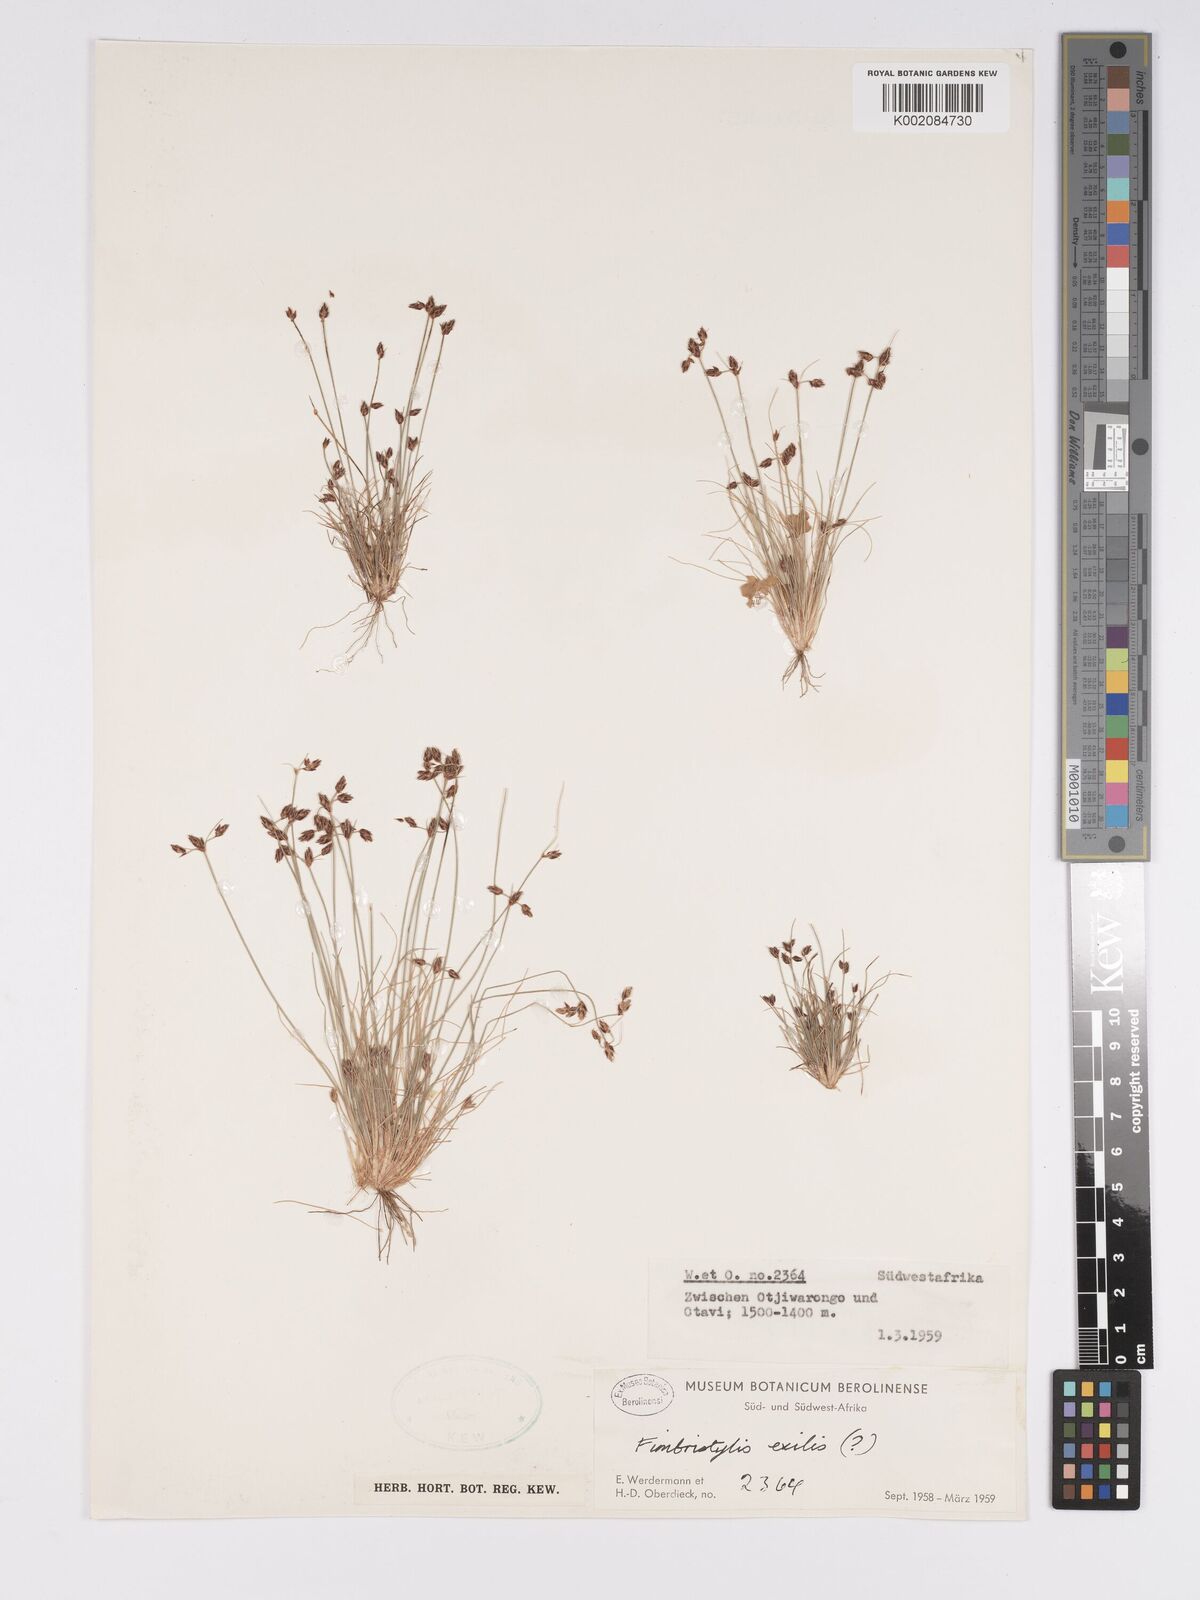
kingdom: Plantae
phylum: Tracheophyta
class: Liliopsida
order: Poales
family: Cyperaceae
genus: Bulbostylis
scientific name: Bulbostylis hispidula
